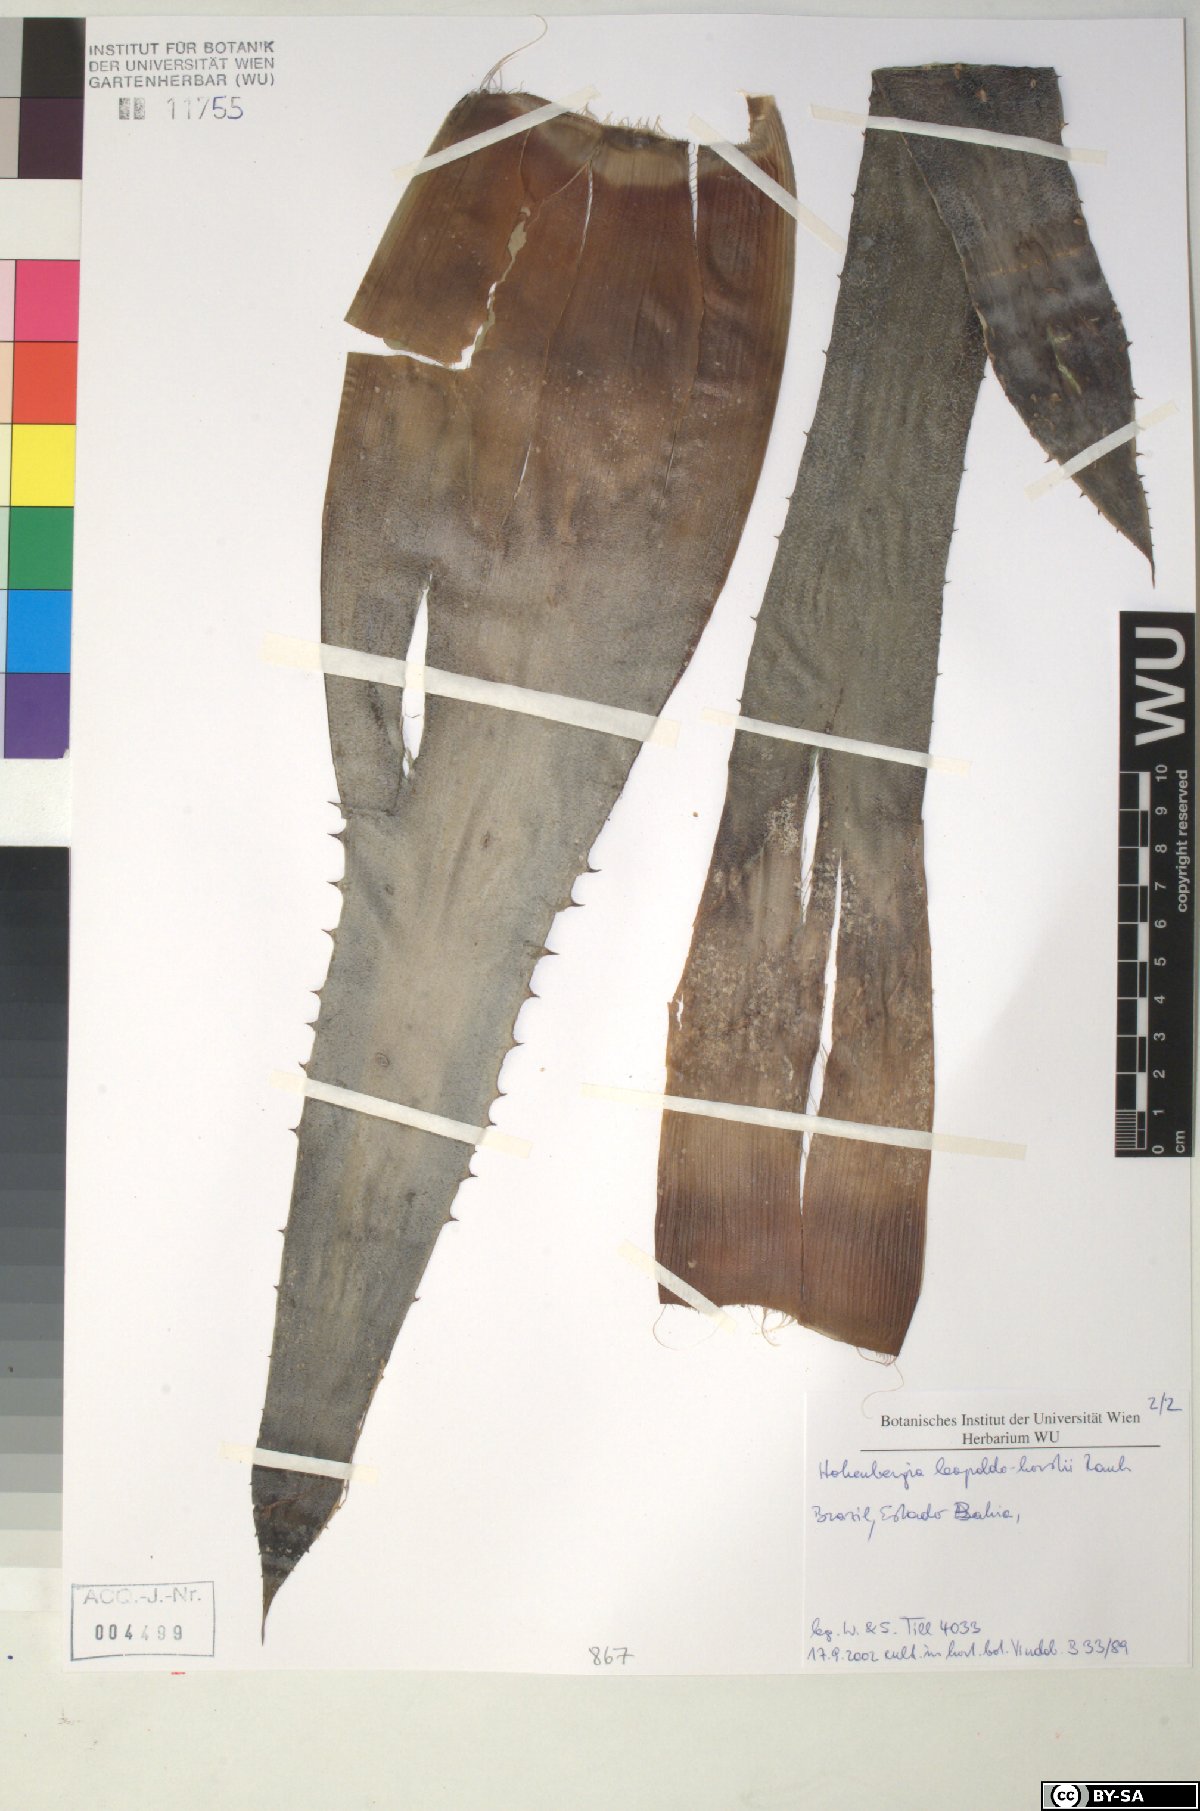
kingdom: Plantae
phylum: Tracheophyta
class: Liliopsida
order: Poales
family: Bromeliaceae
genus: Hohenbergia
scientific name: Hohenbergia leopoldo-horstii
